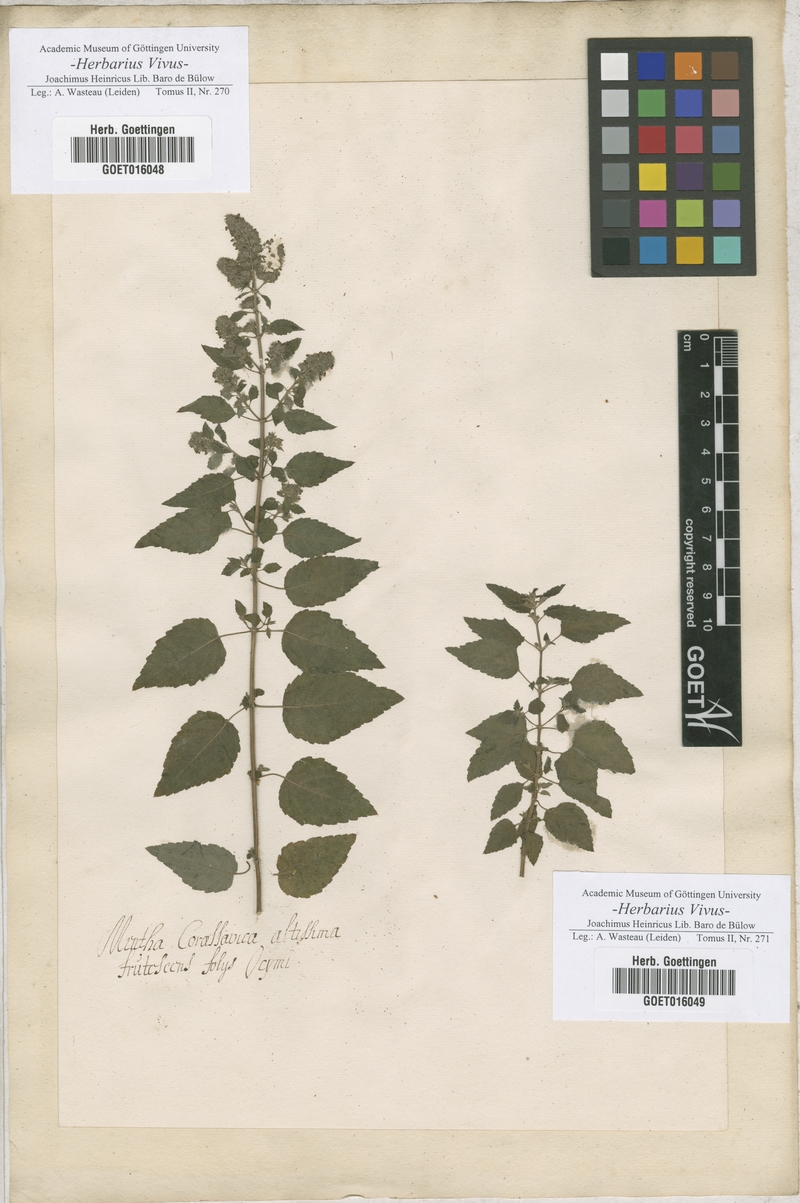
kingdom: Plantae
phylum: Tracheophyta
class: Magnoliopsida
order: Lamiales
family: Lamiaceae
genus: Mentha
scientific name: Mentha
